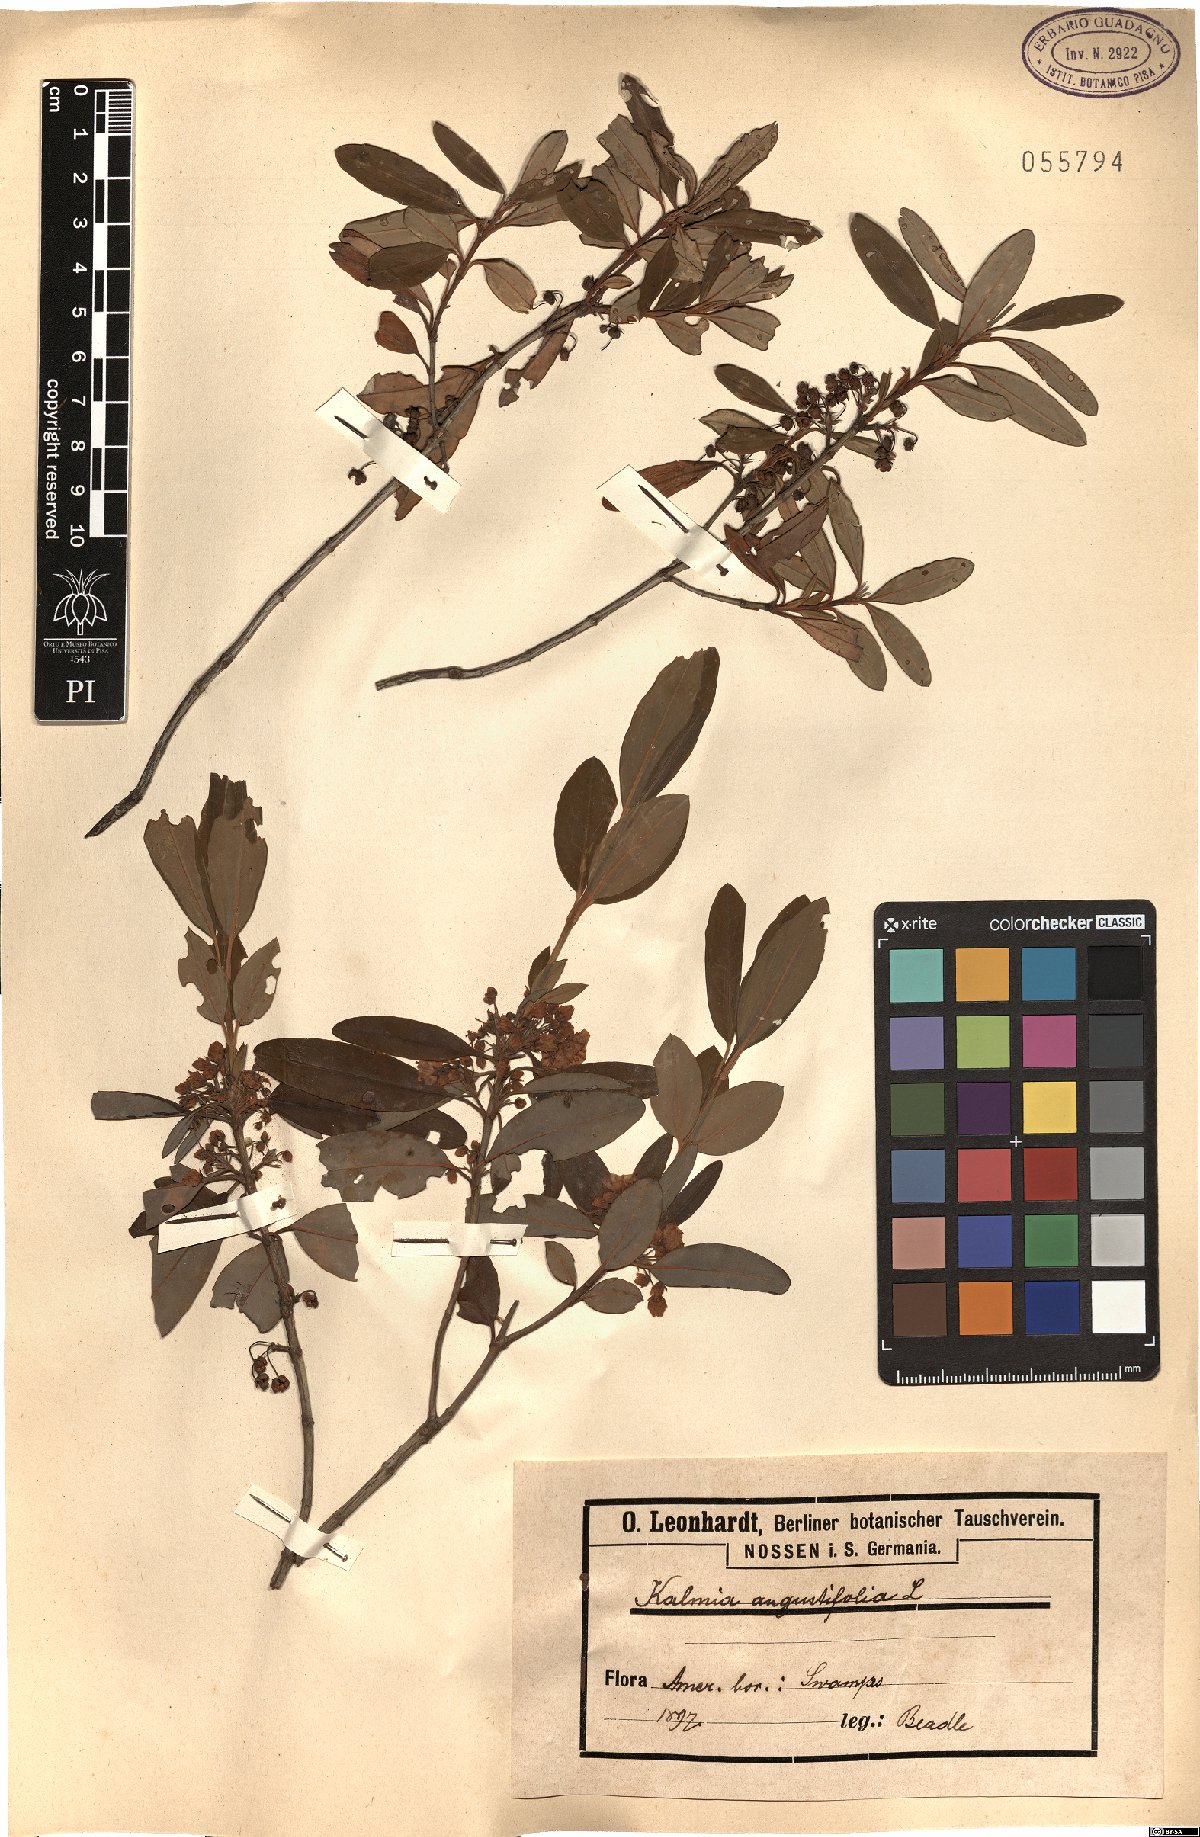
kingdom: Plantae
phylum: Tracheophyta
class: Magnoliopsida
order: Ericales
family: Ericaceae
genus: Kalmia
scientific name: Kalmia angustifolia
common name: Sheep-laurel
